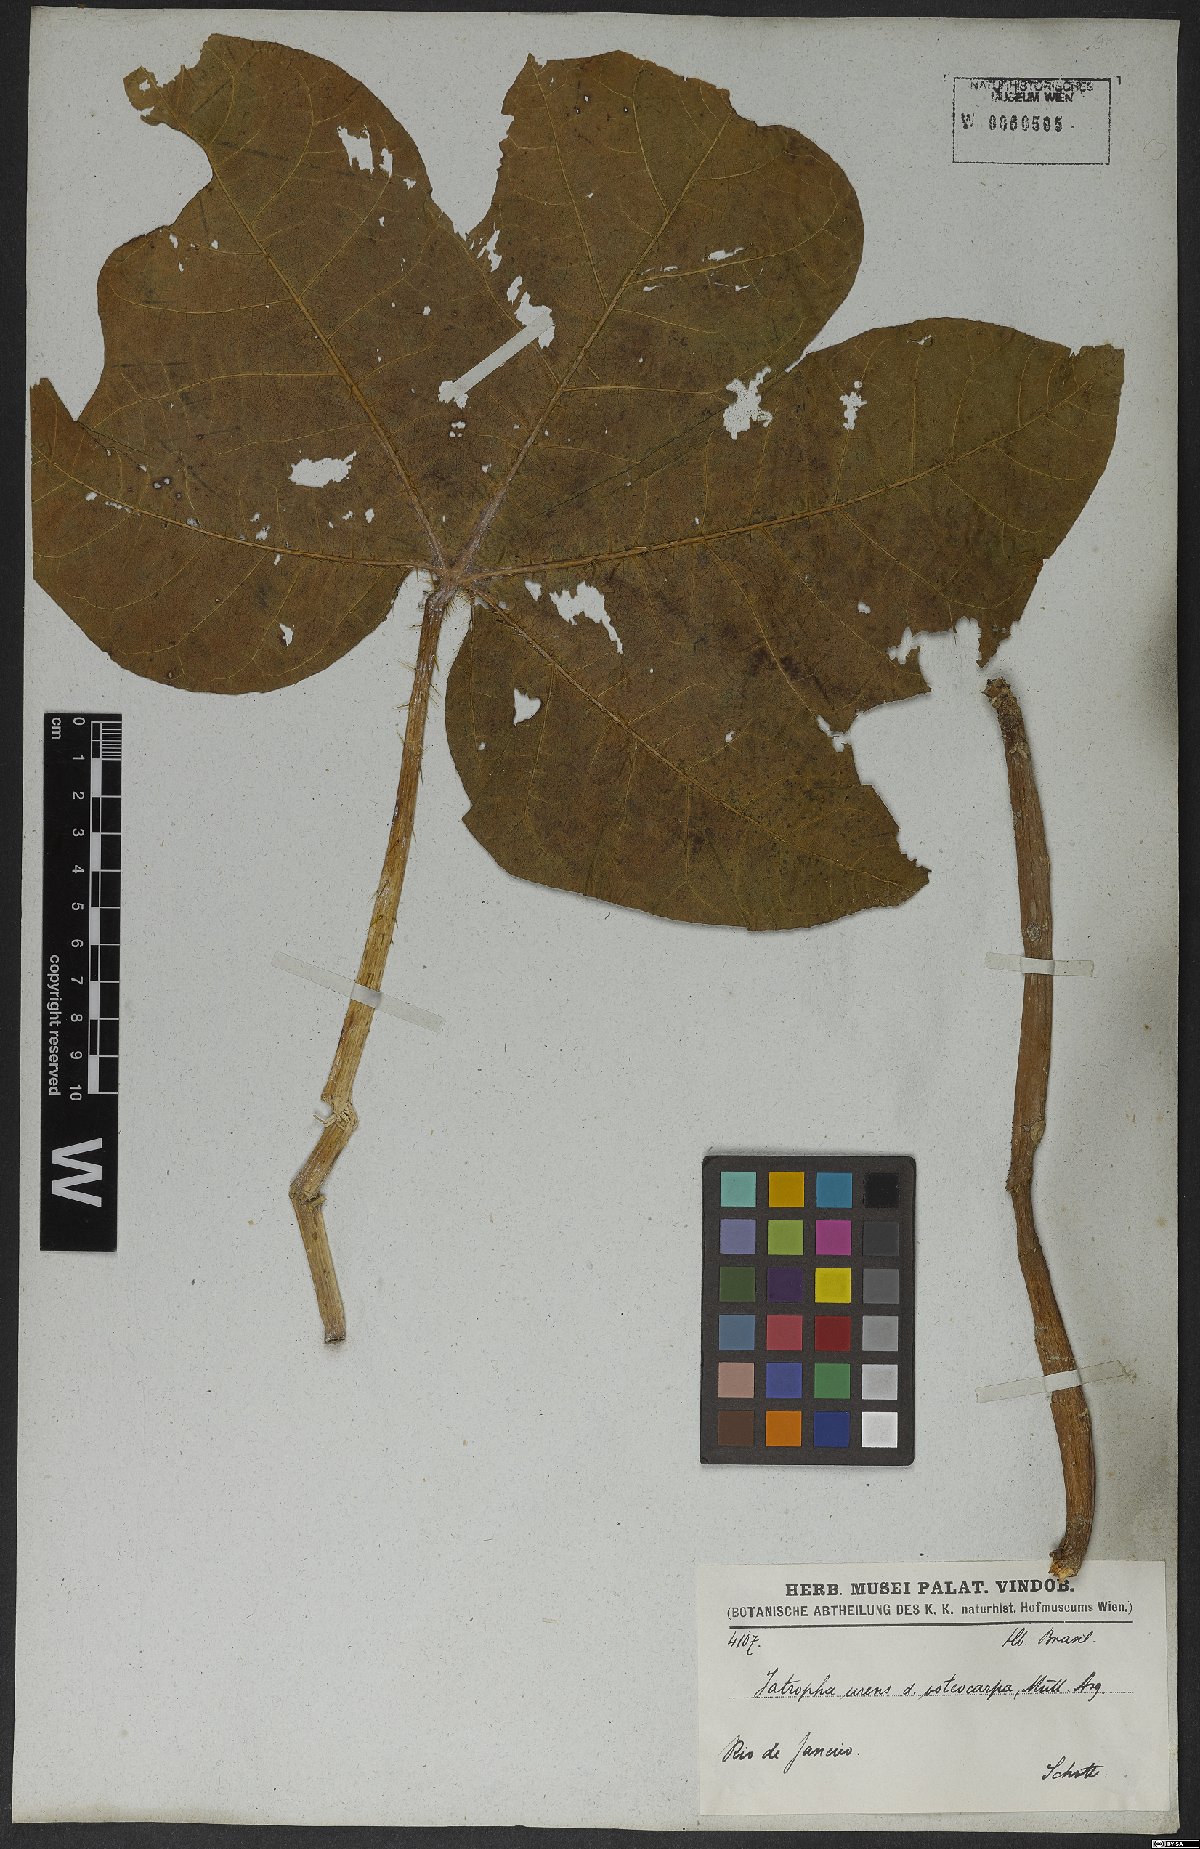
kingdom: Plantae
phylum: Tracheophyta
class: Magnoliopsida
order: Malpighiales
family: Euphorbiaceae
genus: Cnidoscolus
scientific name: Cnidoscolus urens
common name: Bull-nettle
